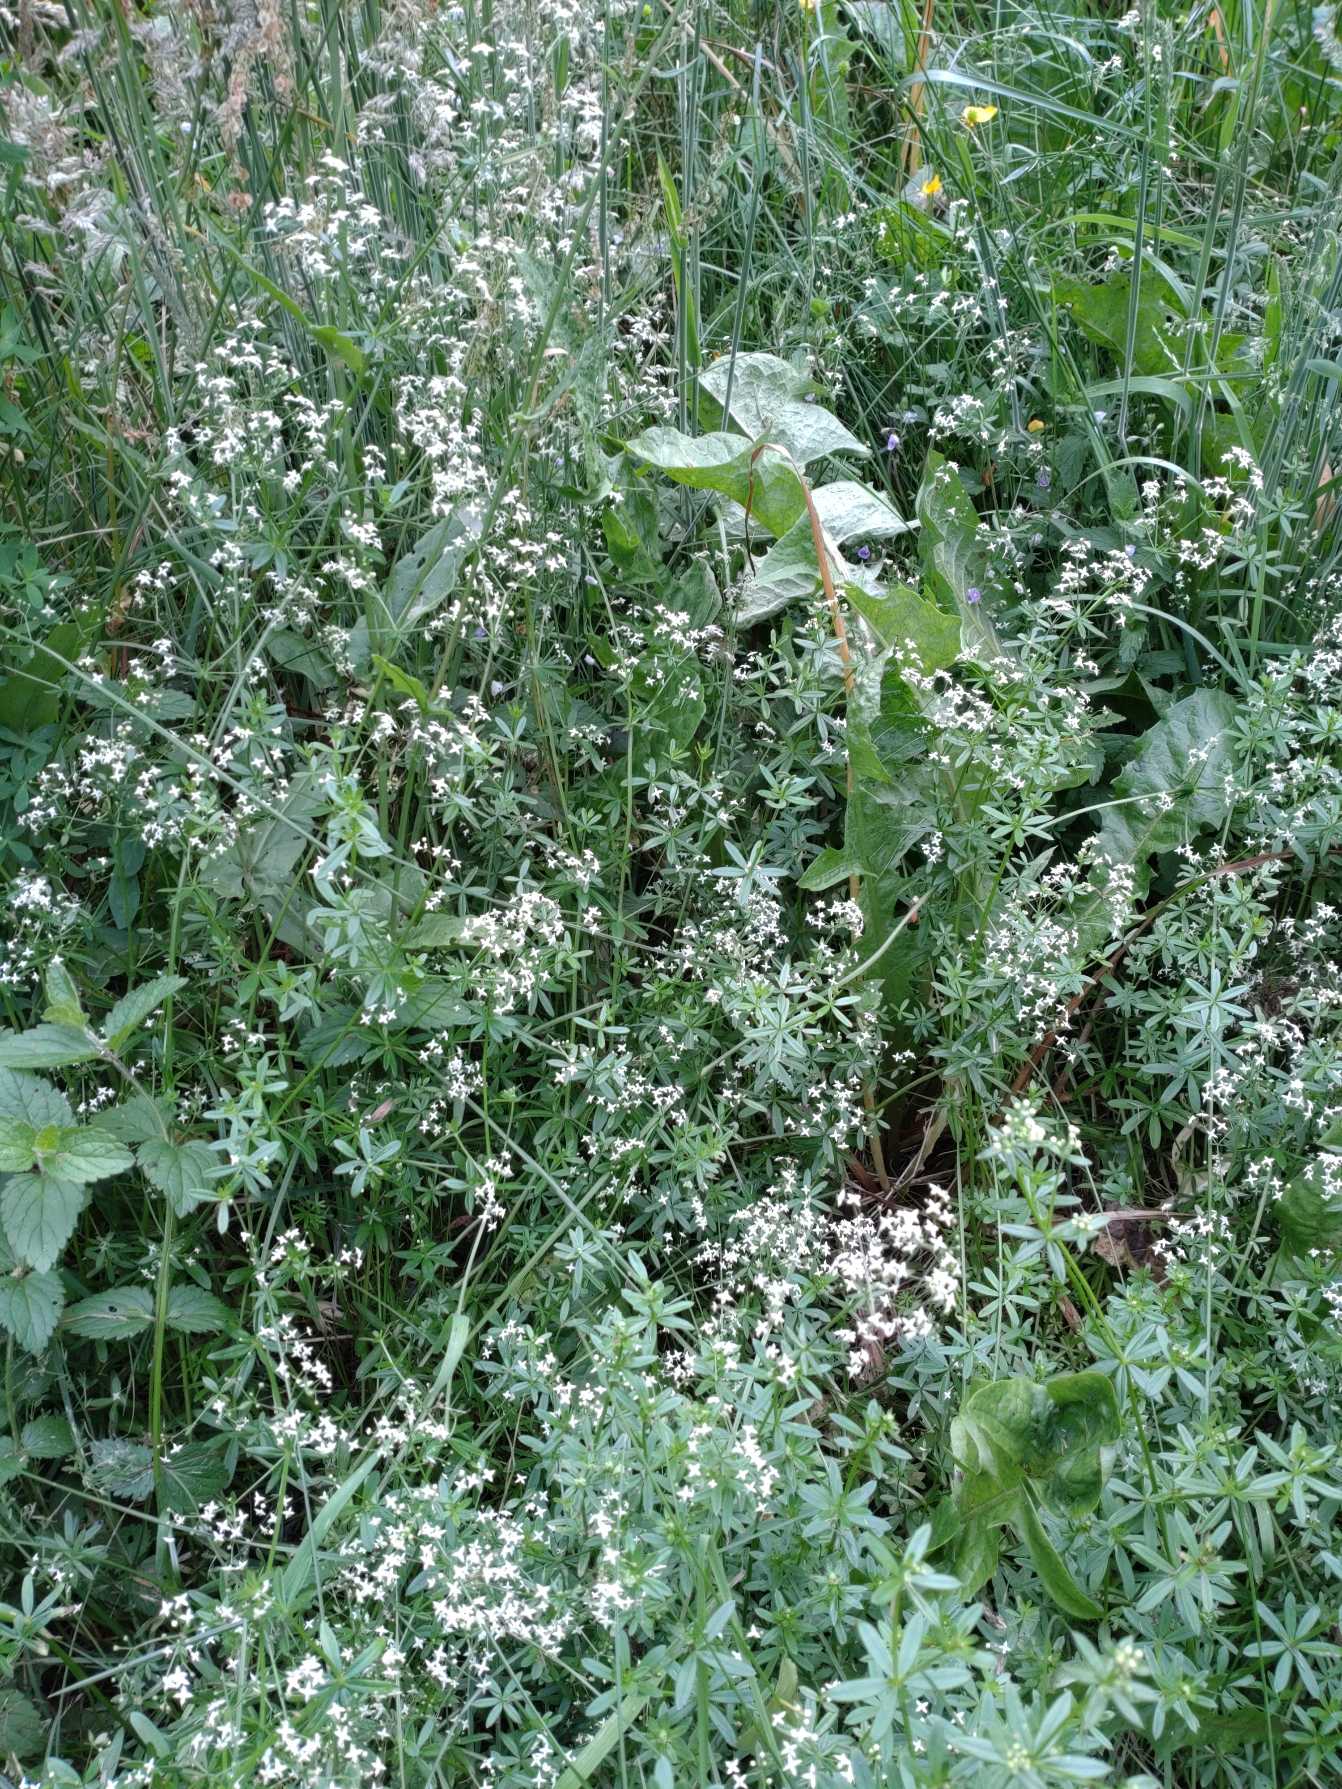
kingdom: Plantae
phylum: Tracheophyta
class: Magnoliopsida
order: Gentianales
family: Rubiaceae
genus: Galium
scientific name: Galium mollugo
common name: Hvid snerre
